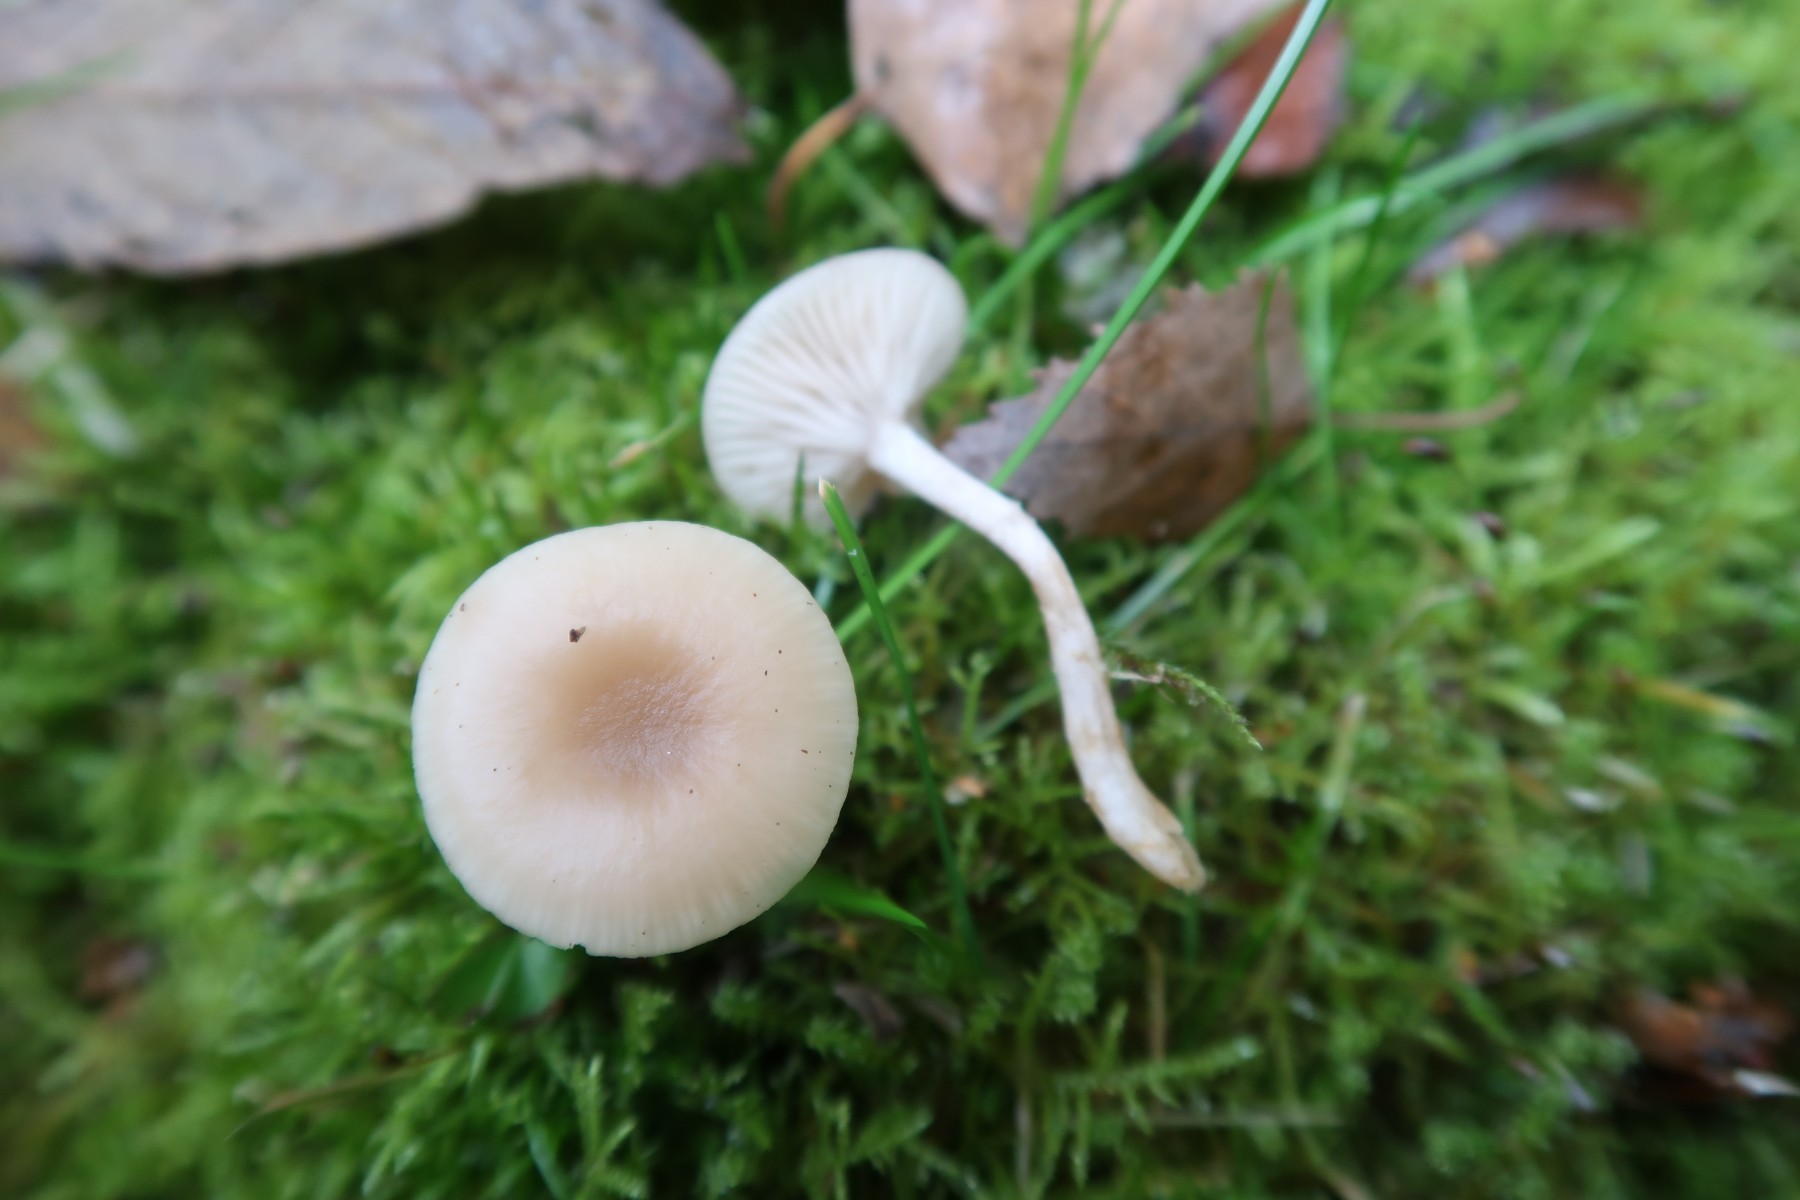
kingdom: Fungi
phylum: Basidiomycota
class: Agaricomycetes
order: Agaricales
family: Tricholomataceae
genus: Clitocybe
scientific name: Clitocybe fragrans
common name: vellugtende tragthat
